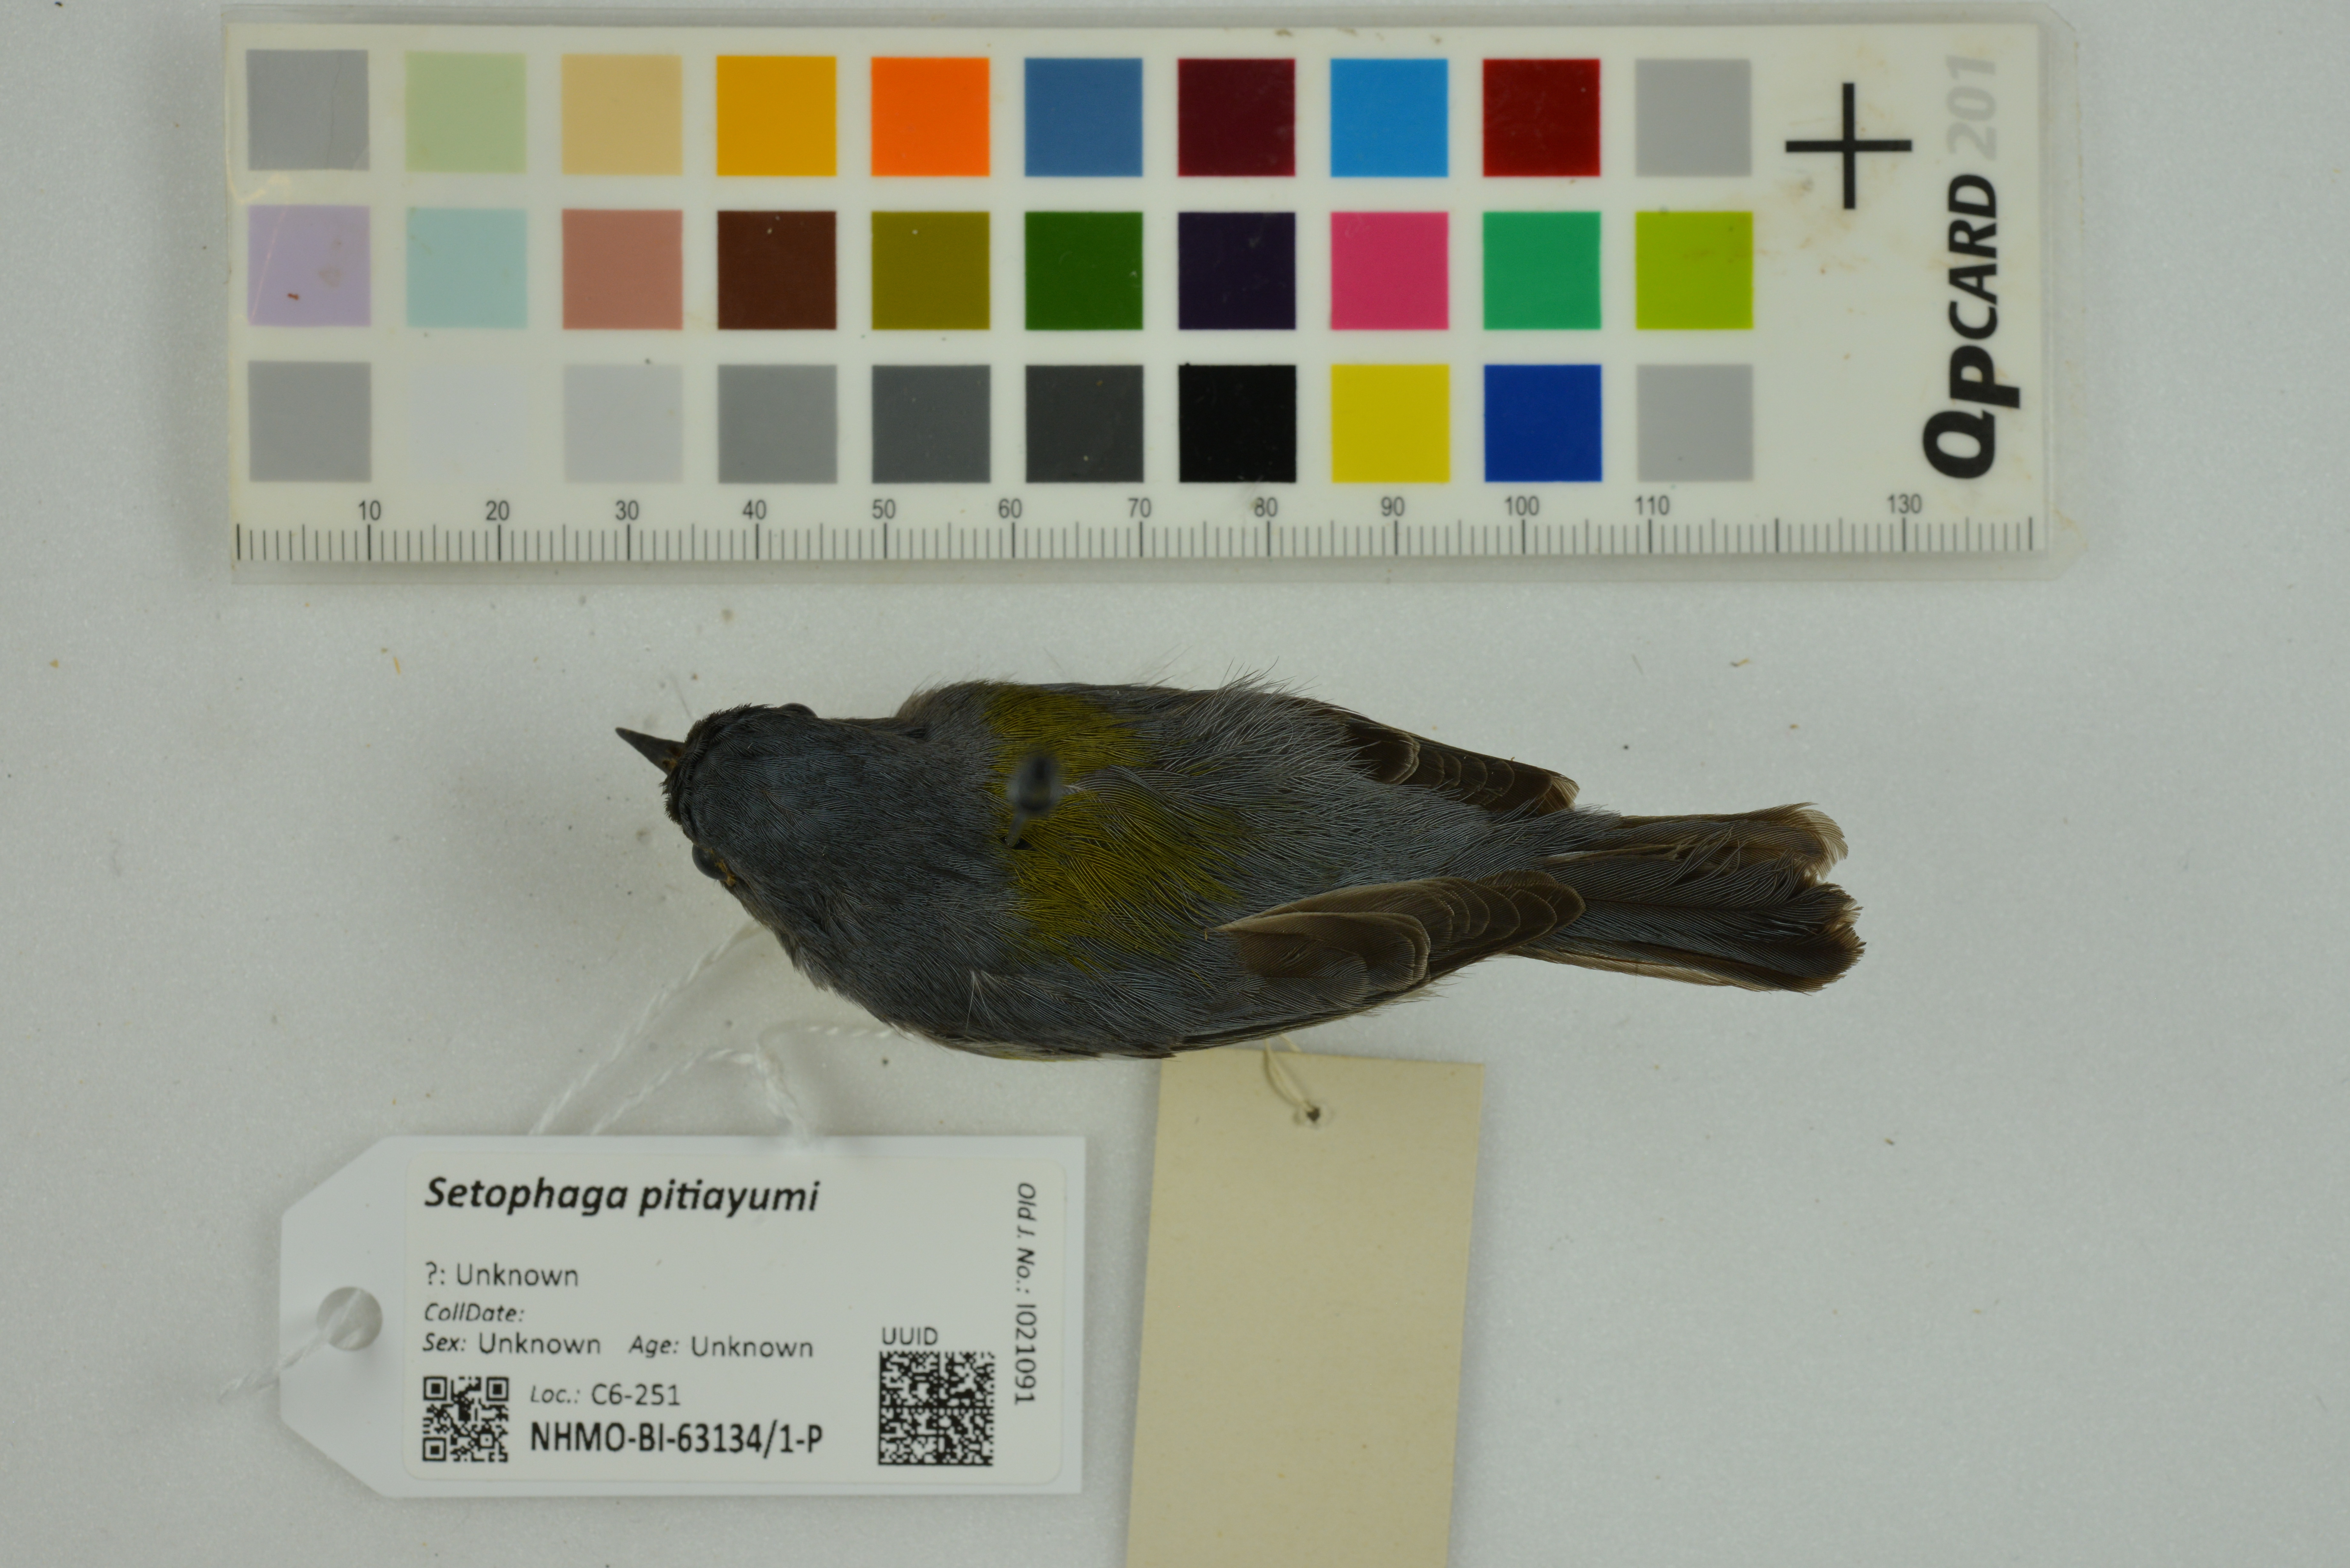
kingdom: Animalia
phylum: Chordata
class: Aves
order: Passeriformes
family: Parulidae
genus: Setophaga
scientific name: Setophaga pitiayumi
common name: Tropical parula
